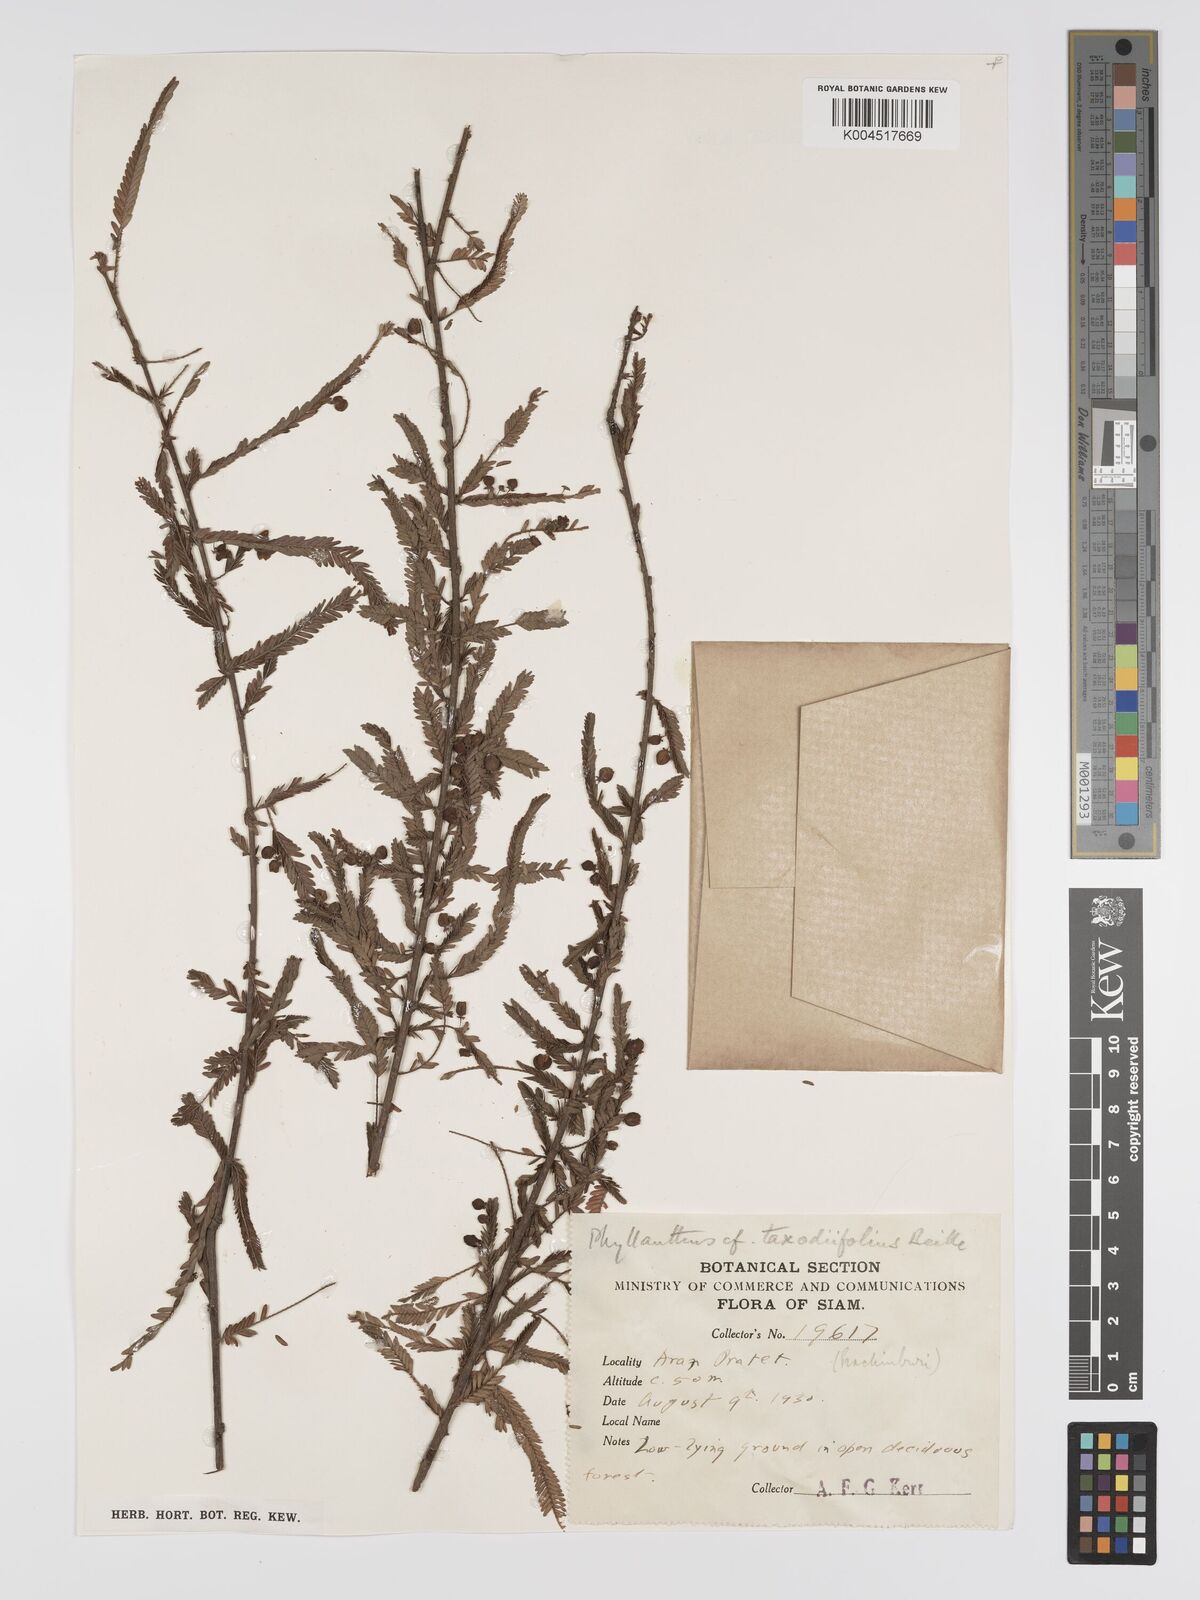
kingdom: Plantae
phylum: Tracheophyta
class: Magnoliopsida
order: Malpighiales
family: Phyllanthaceae
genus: Phyllanthus
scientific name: Phyllanthus taxodiifolius
